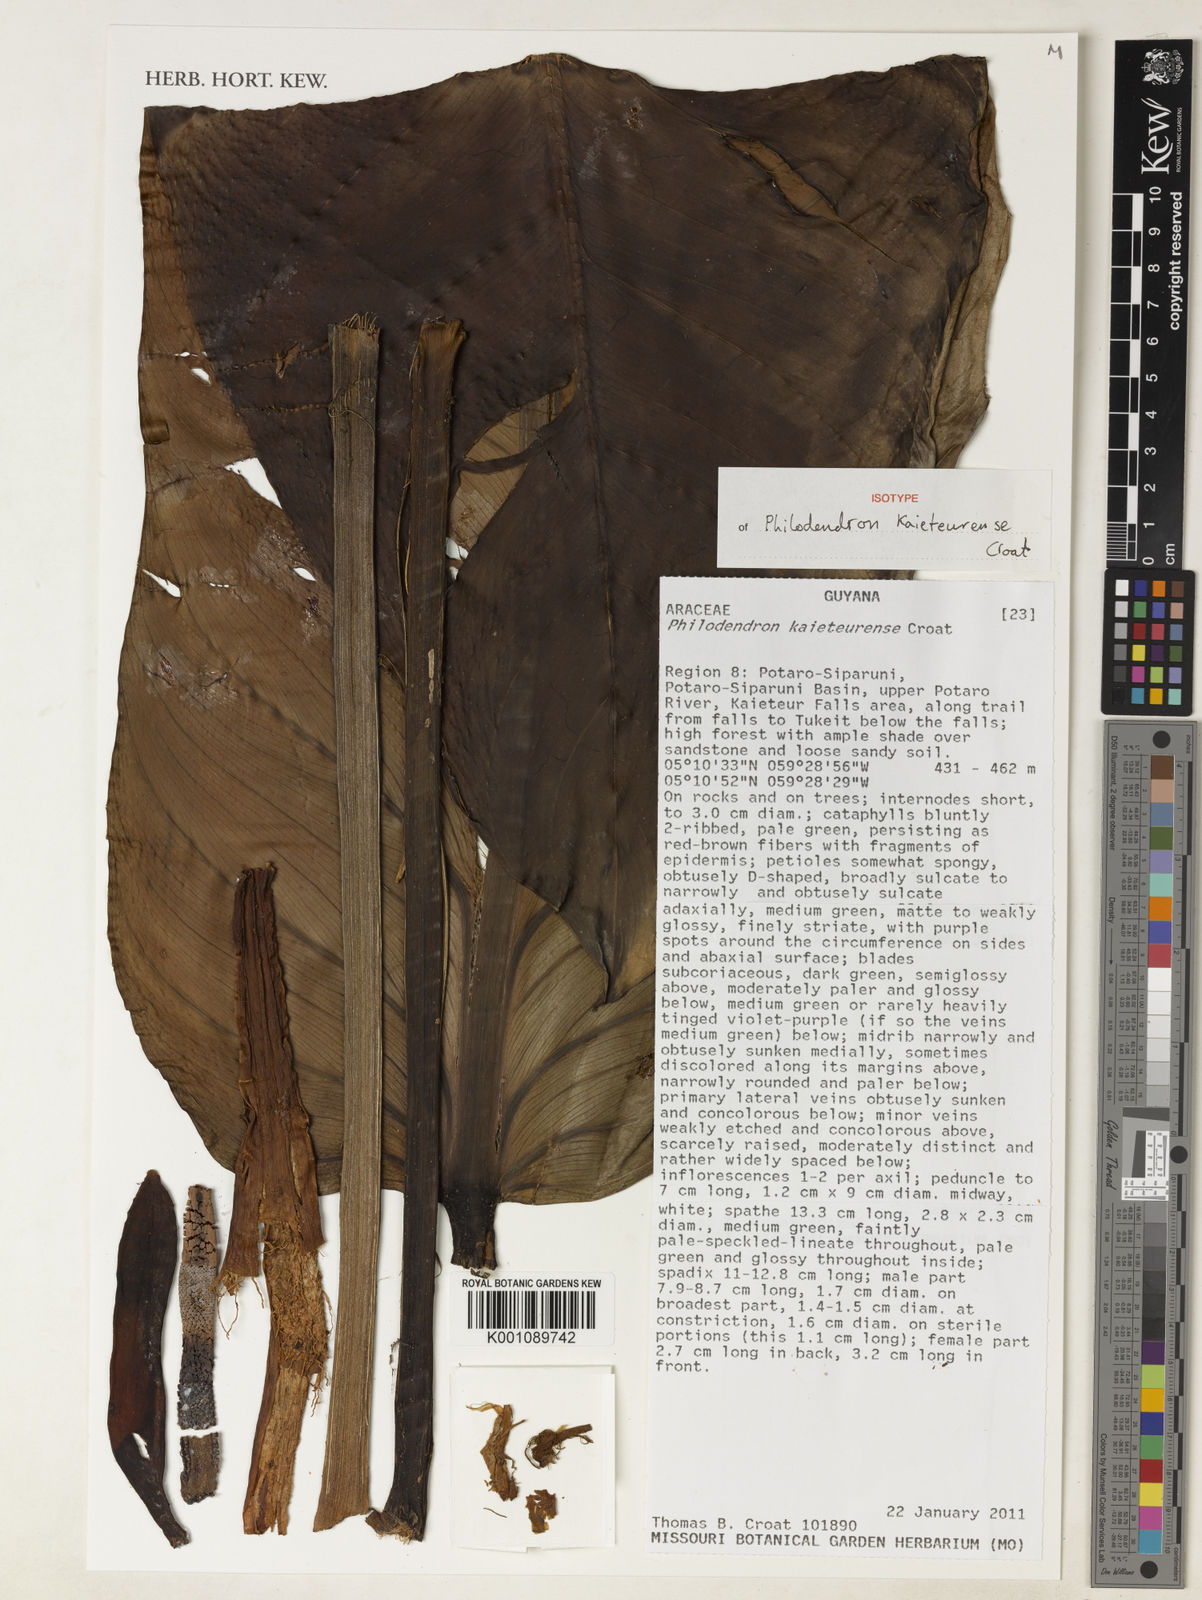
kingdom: Plantae
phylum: Tracheophyta
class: Liliopsida
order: Alismatales
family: Araceae
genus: Philodendron
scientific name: Philodendron kaieteurense
